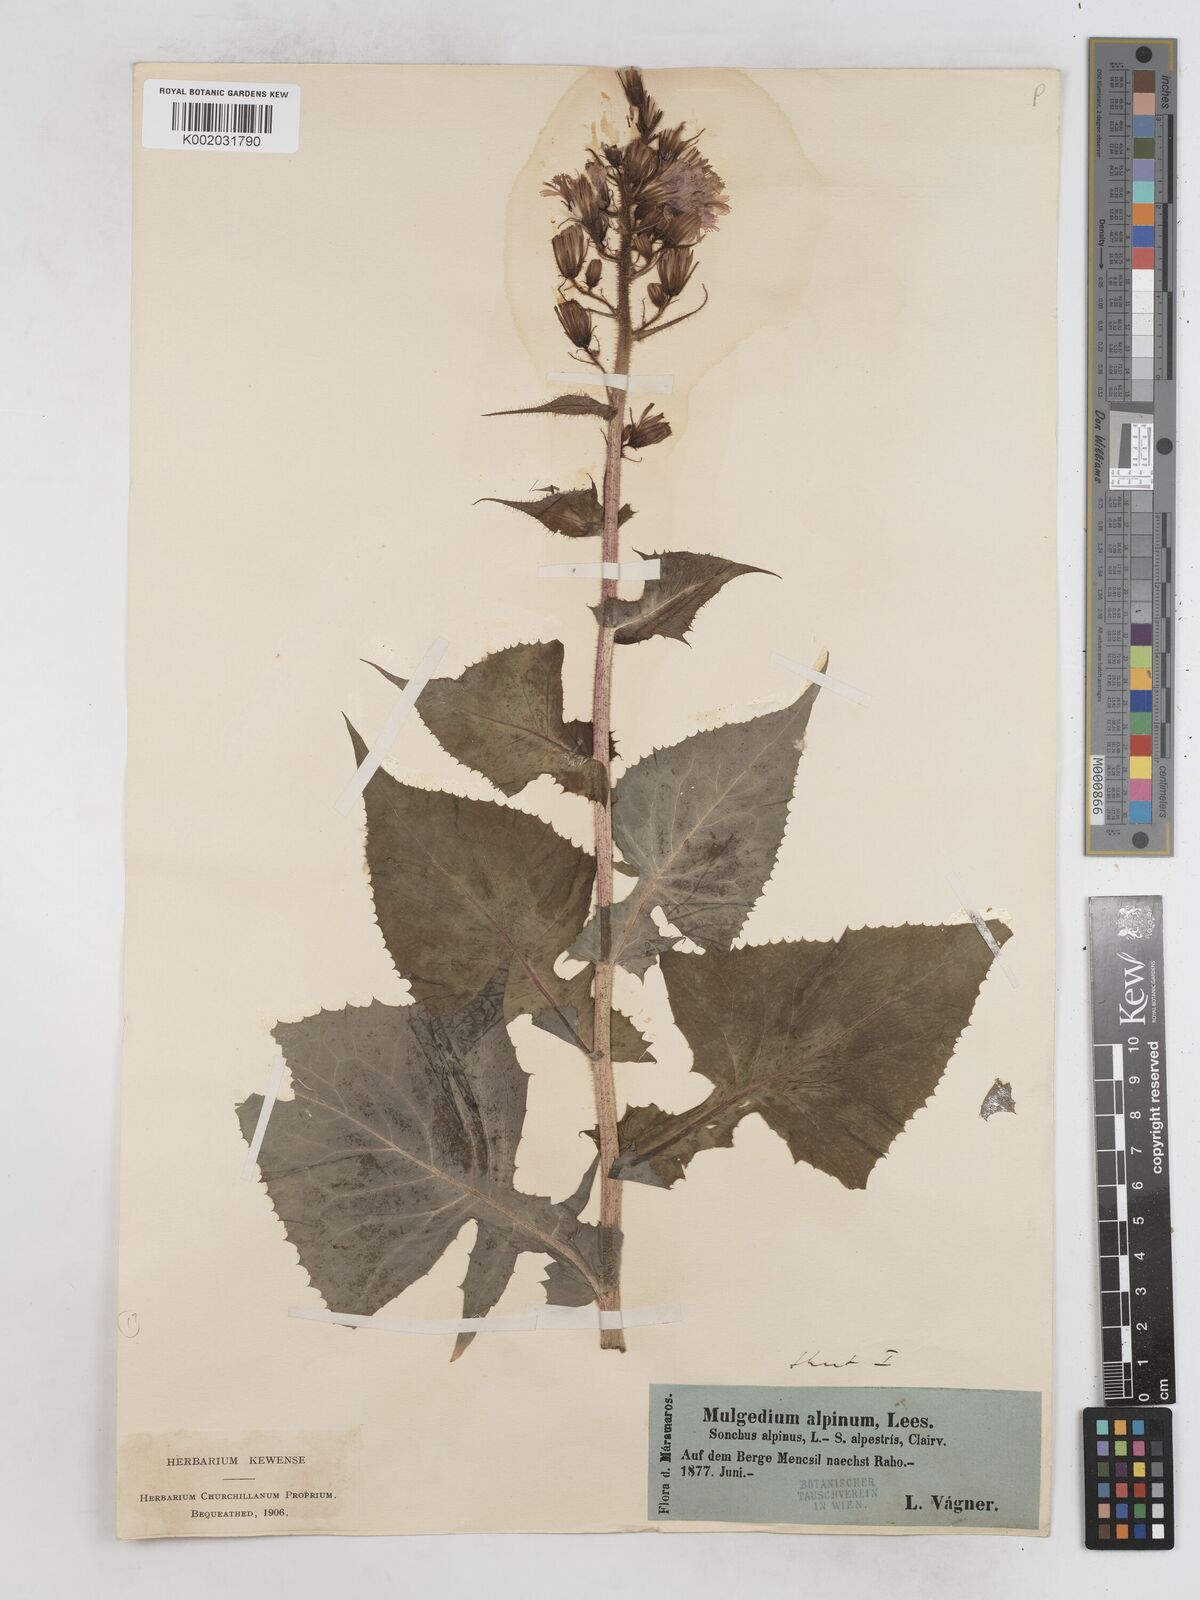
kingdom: Plantae
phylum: Tracheophyta
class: Magnoliopsida
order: Asterales
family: Asteraceae
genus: Cicerbita
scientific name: Cicerbita alpina
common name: Alpine blue-sow-thistle
